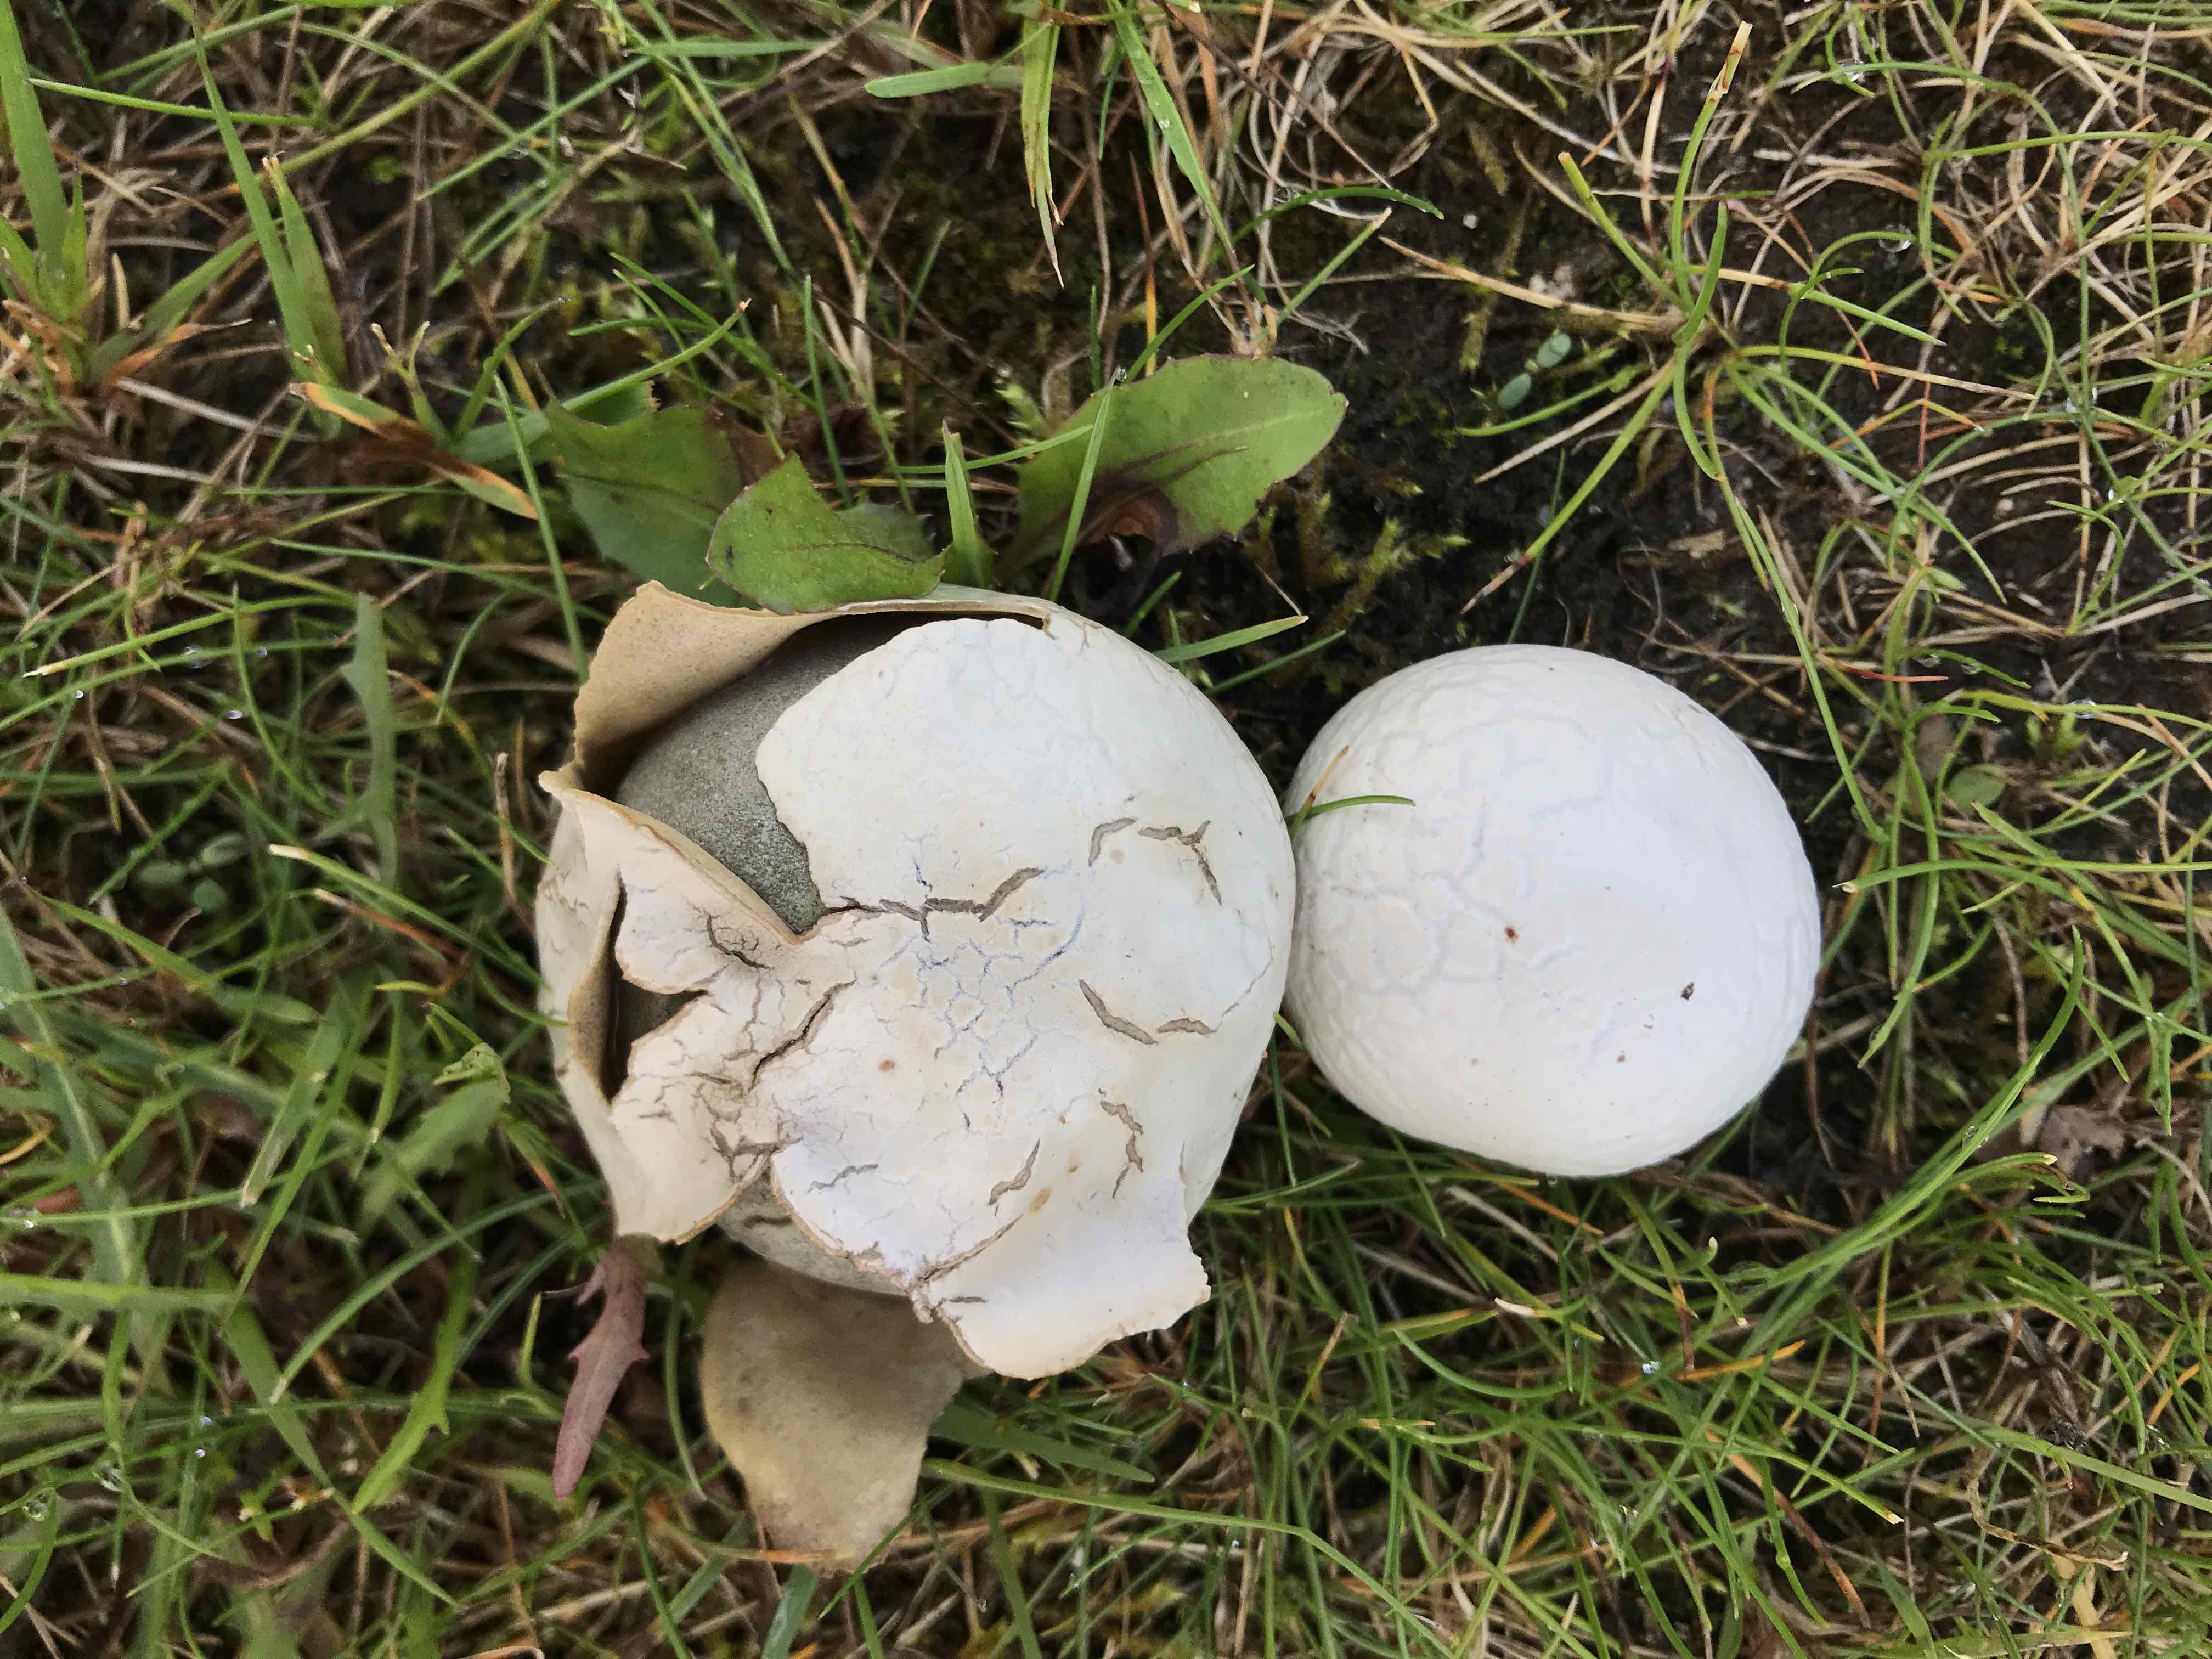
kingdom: Fungi
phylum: Basidiomycota
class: Agaricomycetes
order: Agaricales
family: Lycoperdaceae
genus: Bovista
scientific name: Bovista plumbea
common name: blygrå bovist
